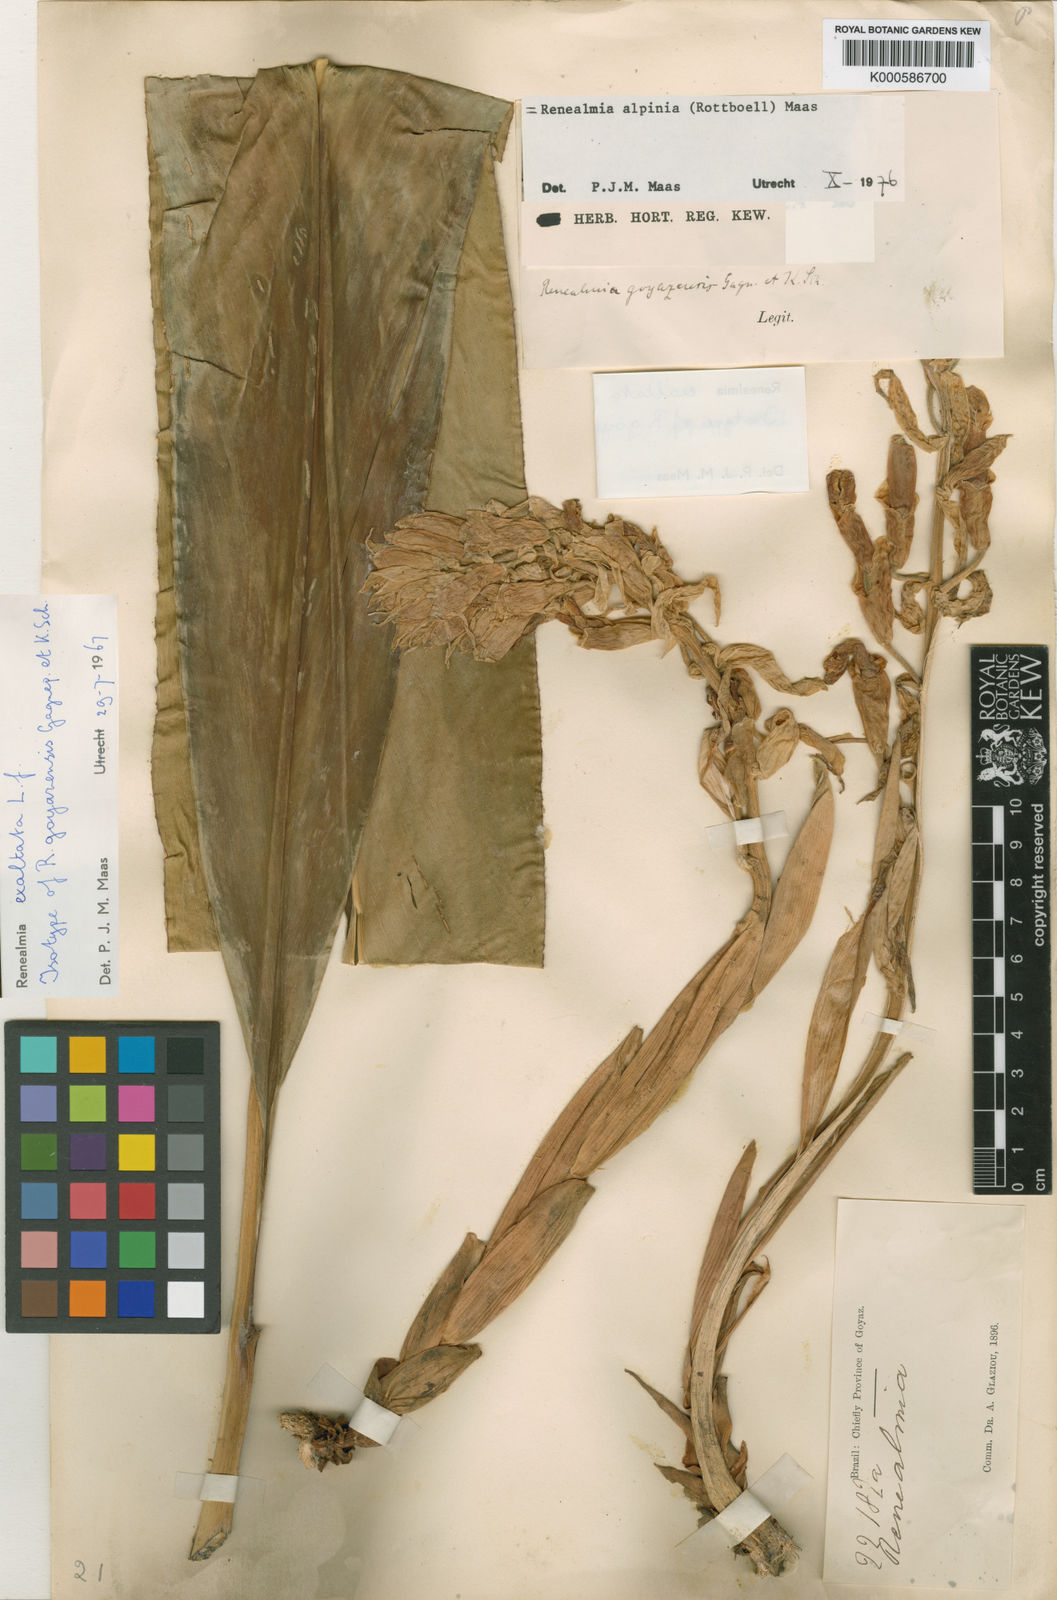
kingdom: Plantae
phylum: Tracheophyta
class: Liliopsida
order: Zingiberales
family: Zingiberaceae
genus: Renealmia
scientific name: Renealmia alpinia
